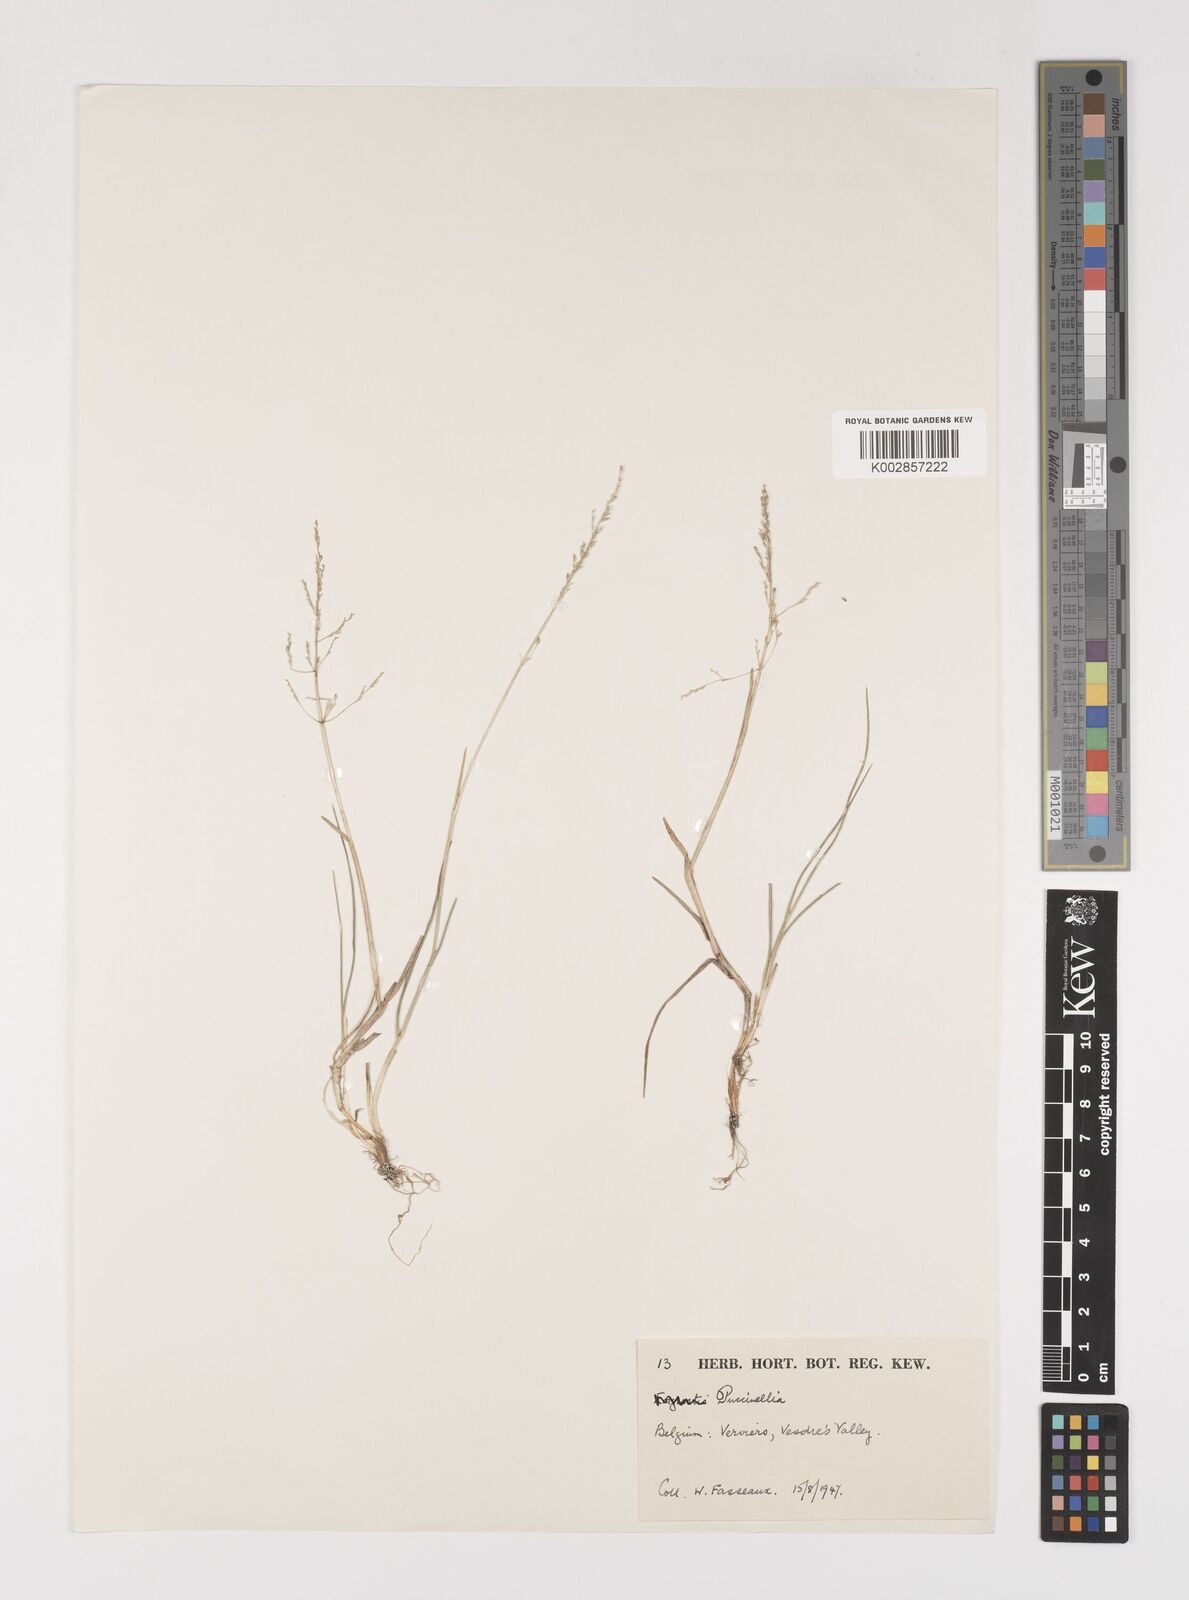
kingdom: Plantae
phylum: Tracheophyta
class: Liliopsida
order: Poales
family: Poaceae
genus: Puccinellia
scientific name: Puccinellia
